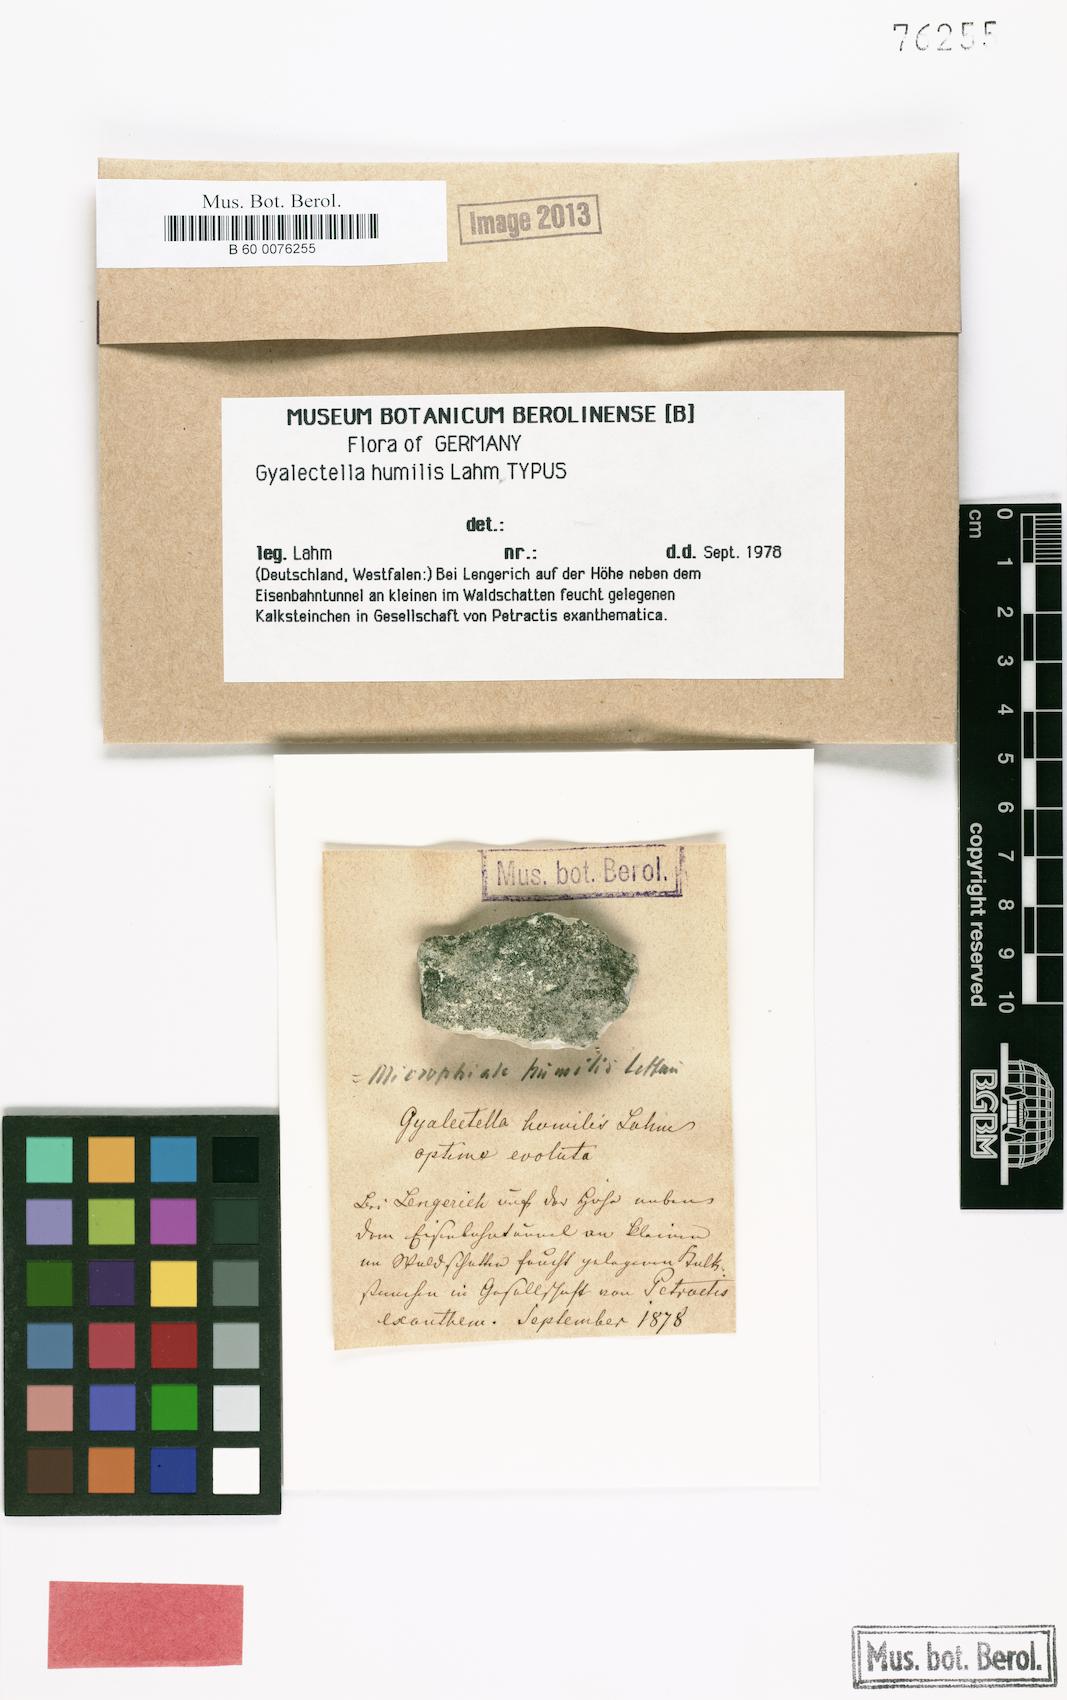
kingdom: Fungi
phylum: Ascomycota
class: Lecanoromycetes
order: Ostropales
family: Coenogoniaceae
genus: Coenogonium
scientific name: Coenogonium
